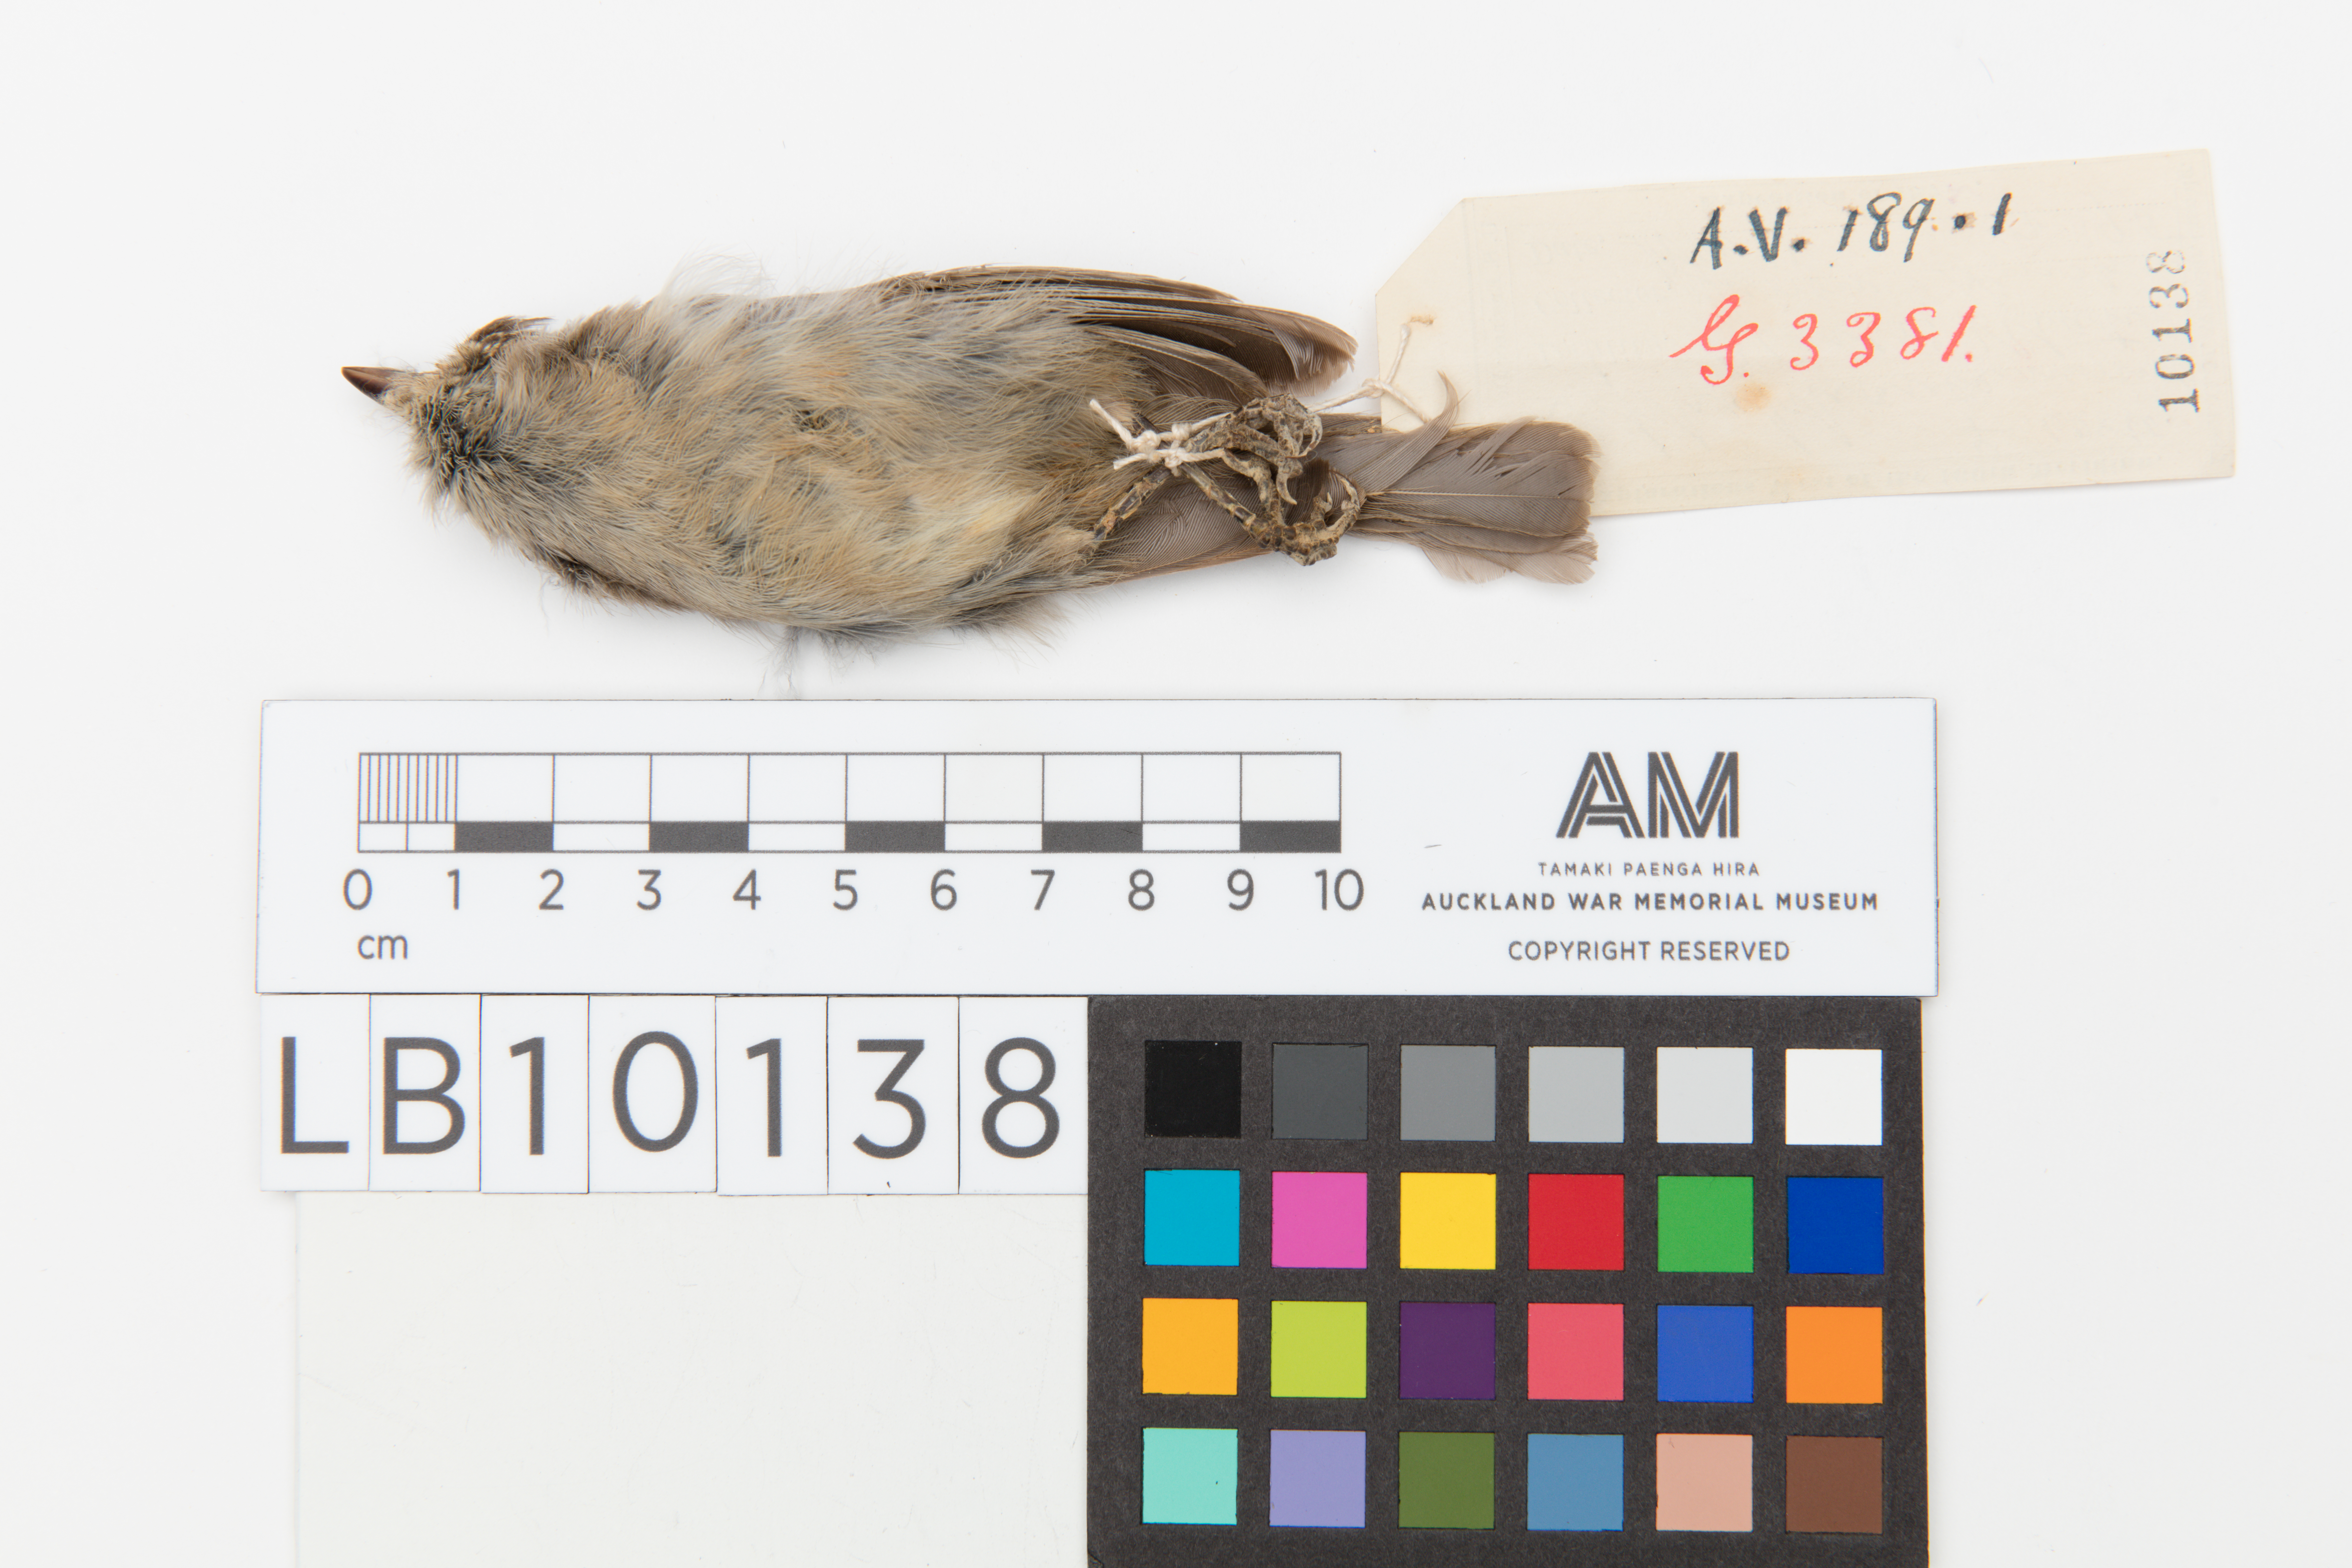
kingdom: Animalia
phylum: Chordata
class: Aves
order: Passeriformes
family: Paridae
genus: Baeolophus
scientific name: Baeolophus inornatus
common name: Oak titmouse
